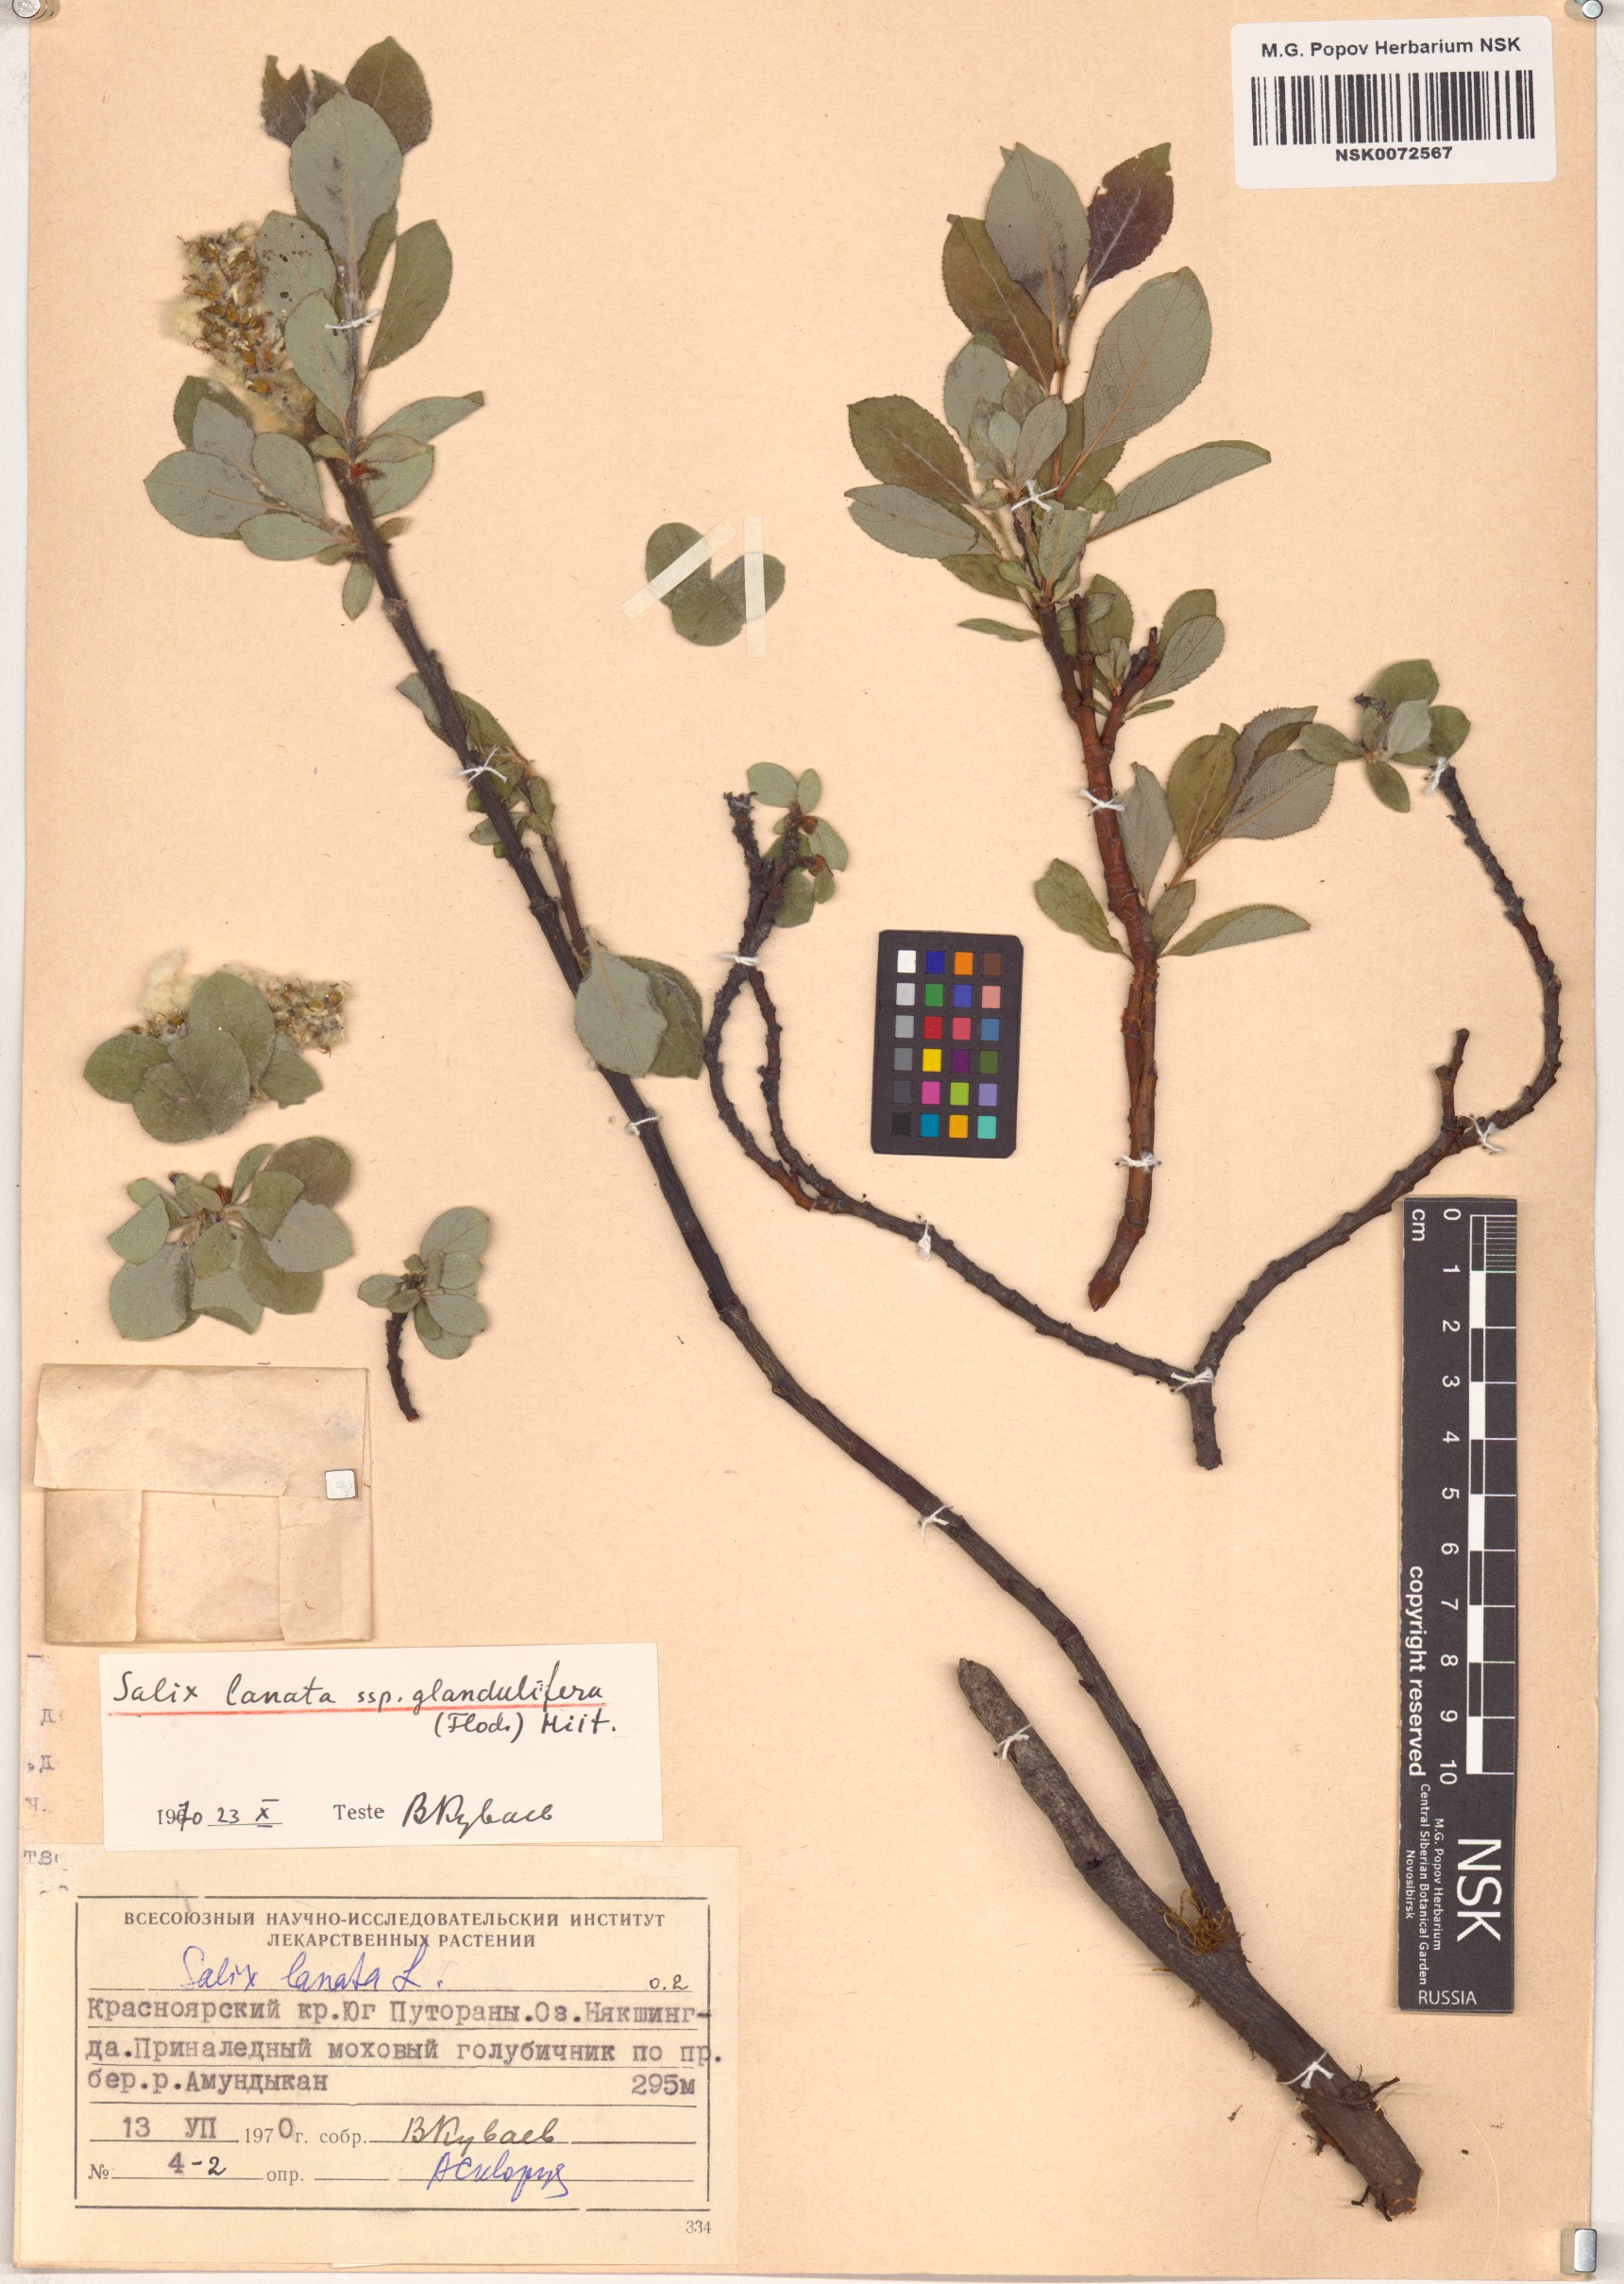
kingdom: Plantae
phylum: Tracheophyta
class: Magnoliopsida
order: Malpighiales
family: Salicaceae
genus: Salix
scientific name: Salix lanata
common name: Woolly willow
